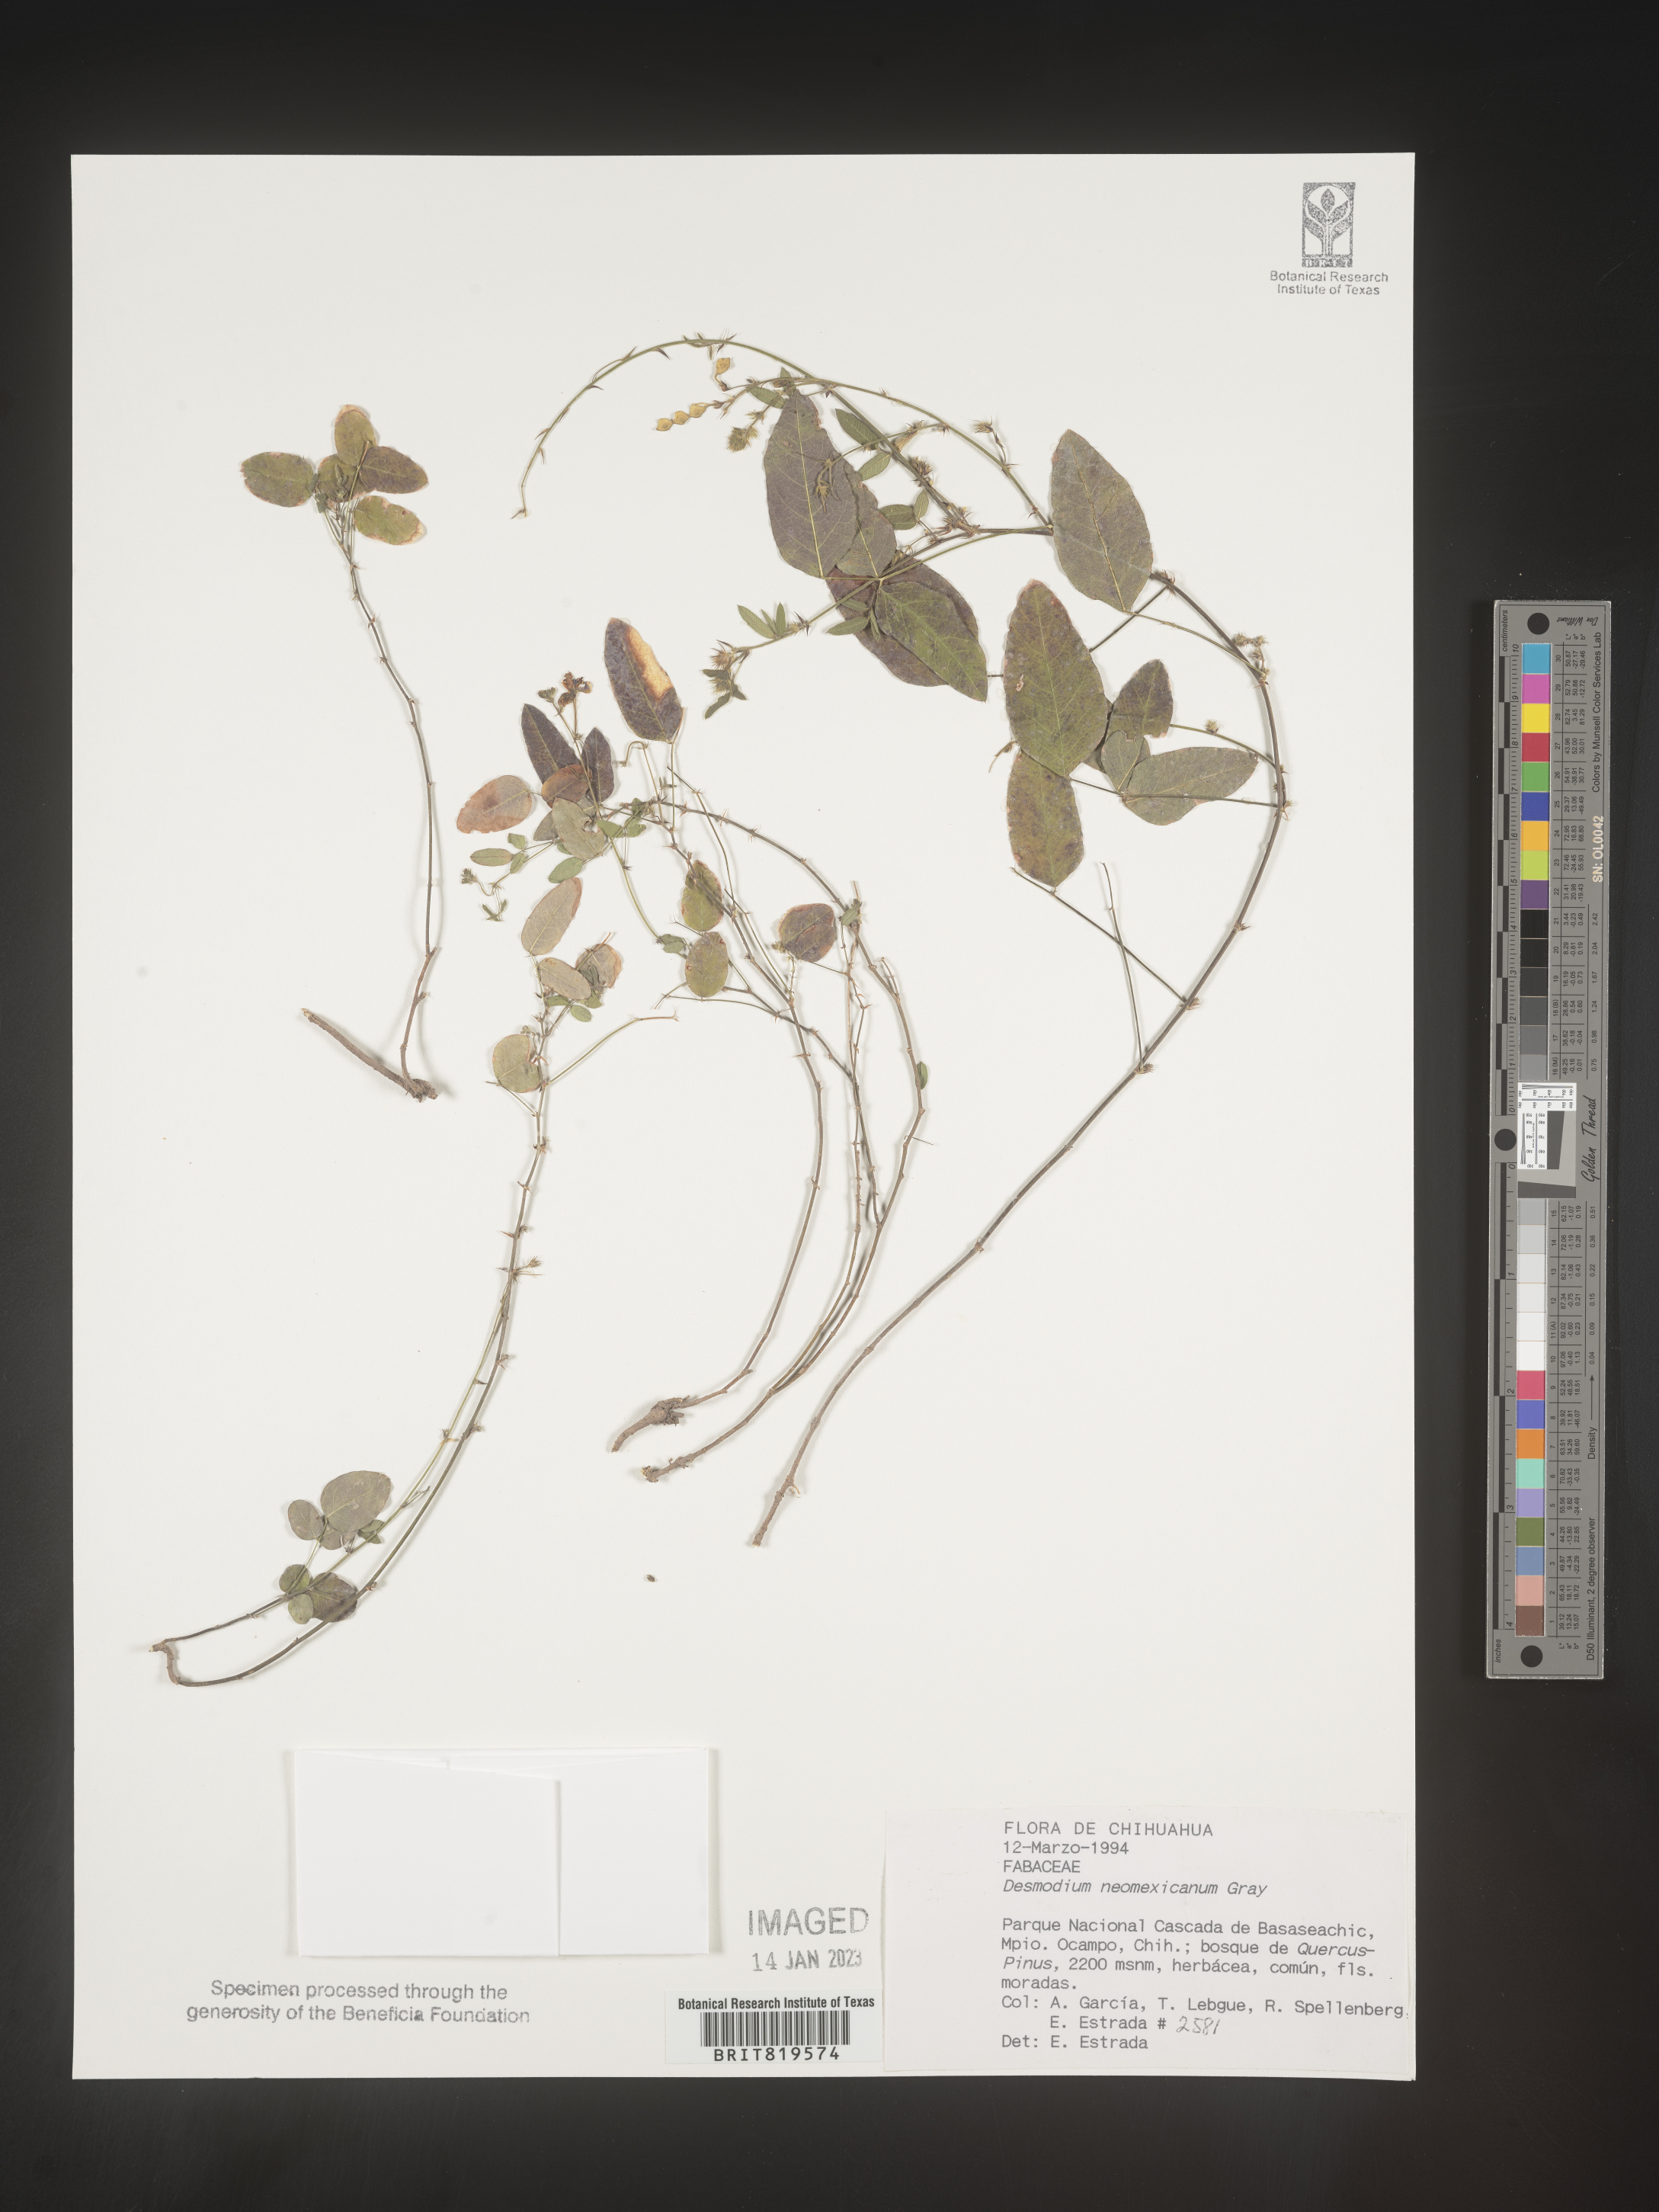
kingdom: Plantae
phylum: Tracheophyta
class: Magnoliopsida
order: Fabales
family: Fabaceae
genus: Desmodium
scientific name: Desmodium
